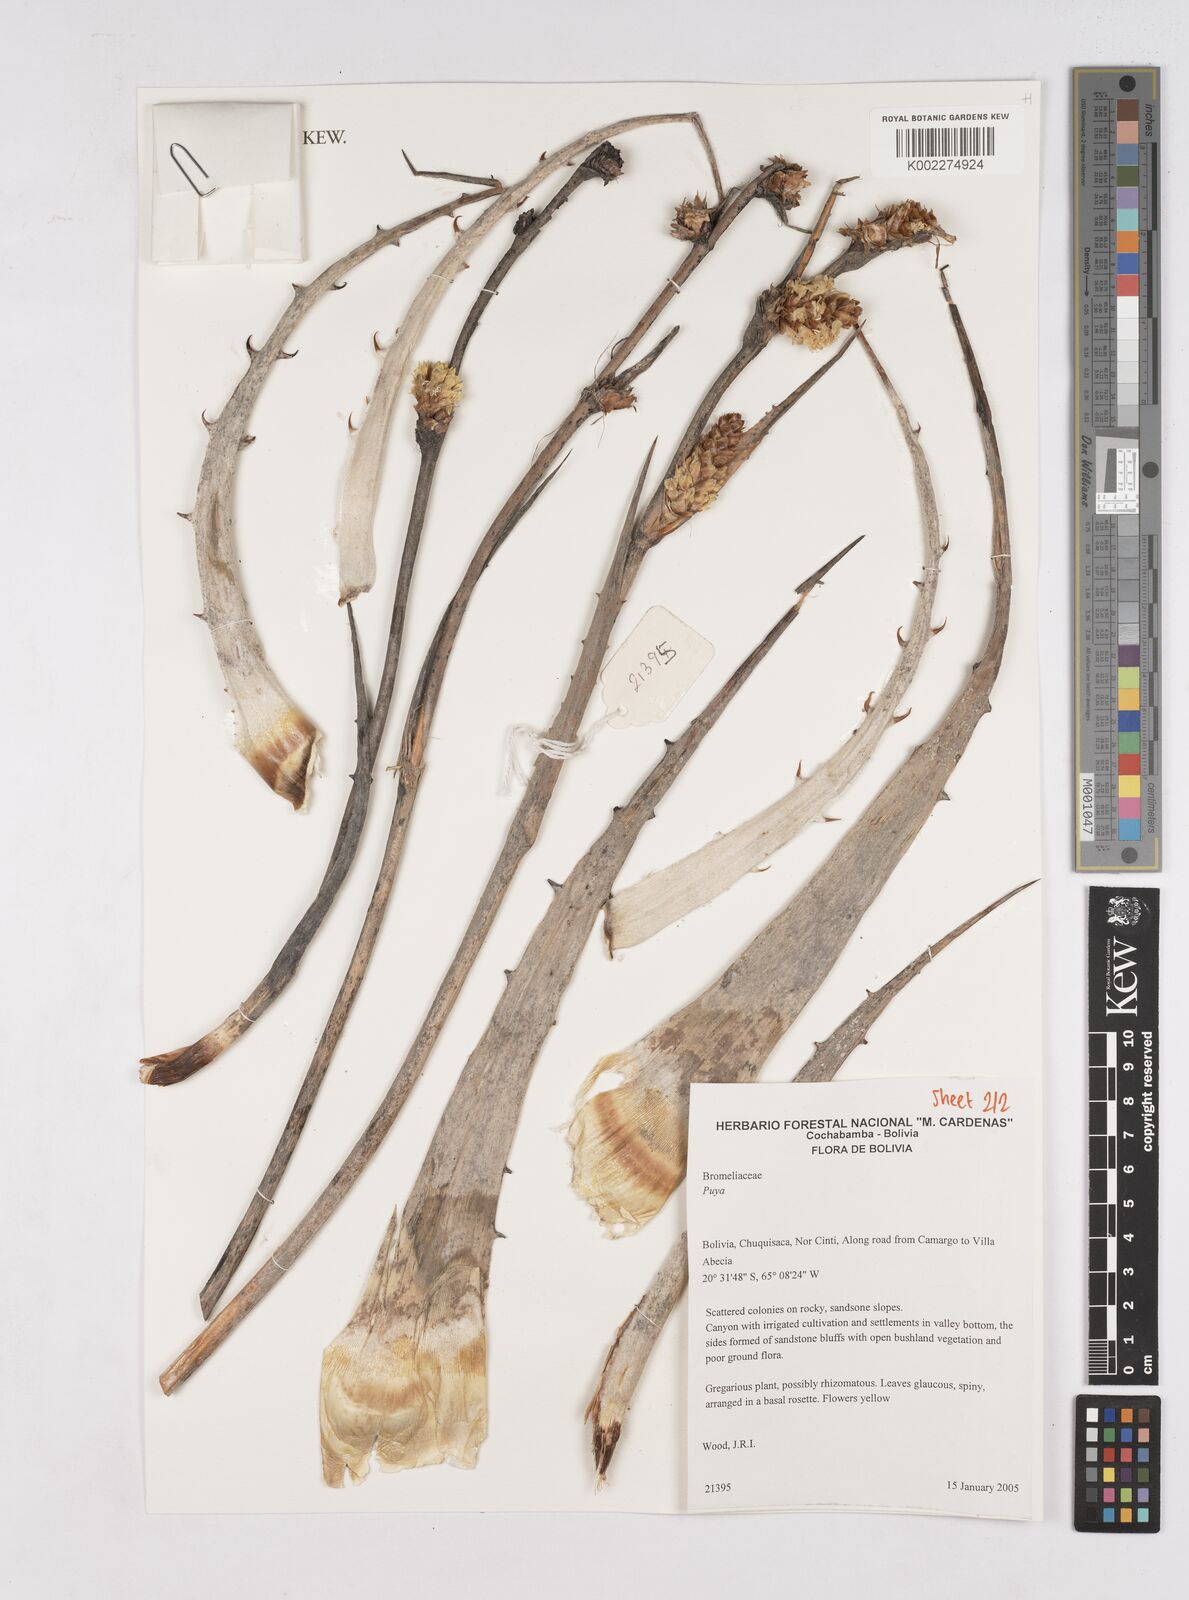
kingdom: Plantae
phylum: Tracheophyta
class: Liliopsida
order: Poales
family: Bromeliaceae
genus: Puya
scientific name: Puya
